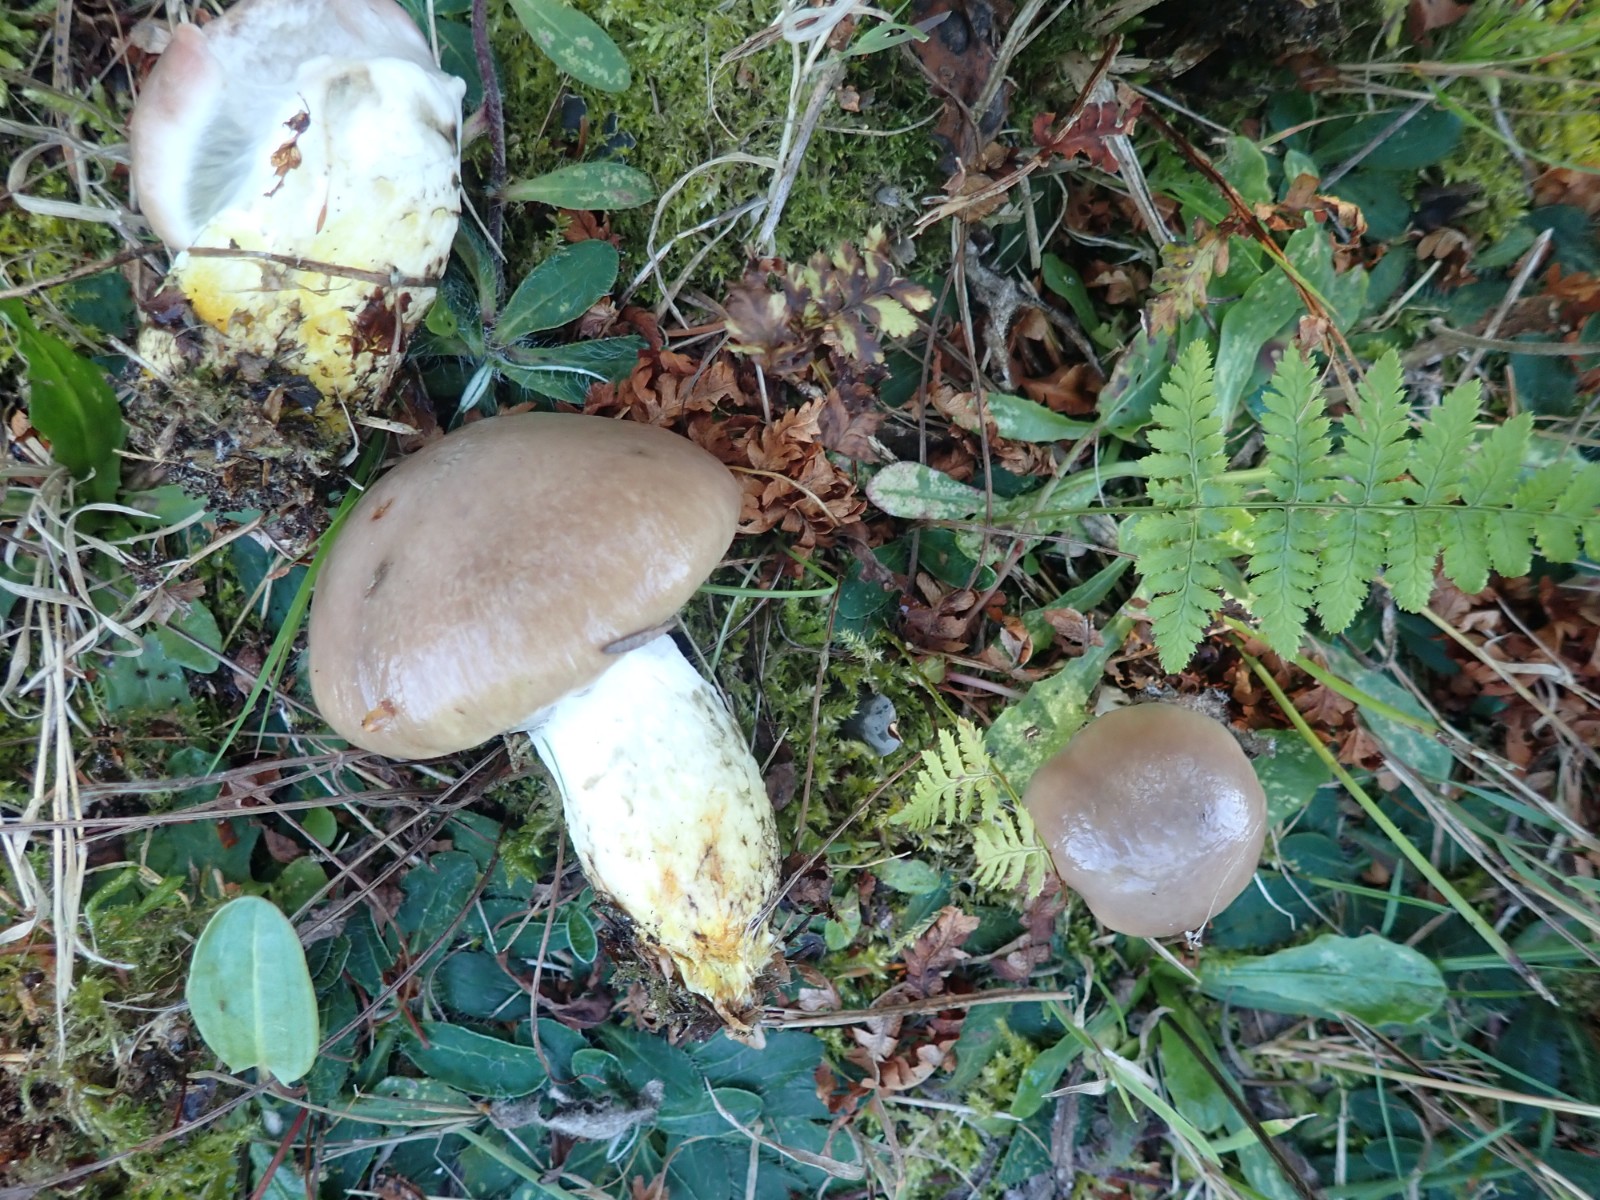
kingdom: Fungi
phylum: Basidiomycota
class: Agaricomycetes
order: Boletales
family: Gomphidiaceae
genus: Gomphidius
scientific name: Gomphidius glutinosus
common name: grå slimslør
